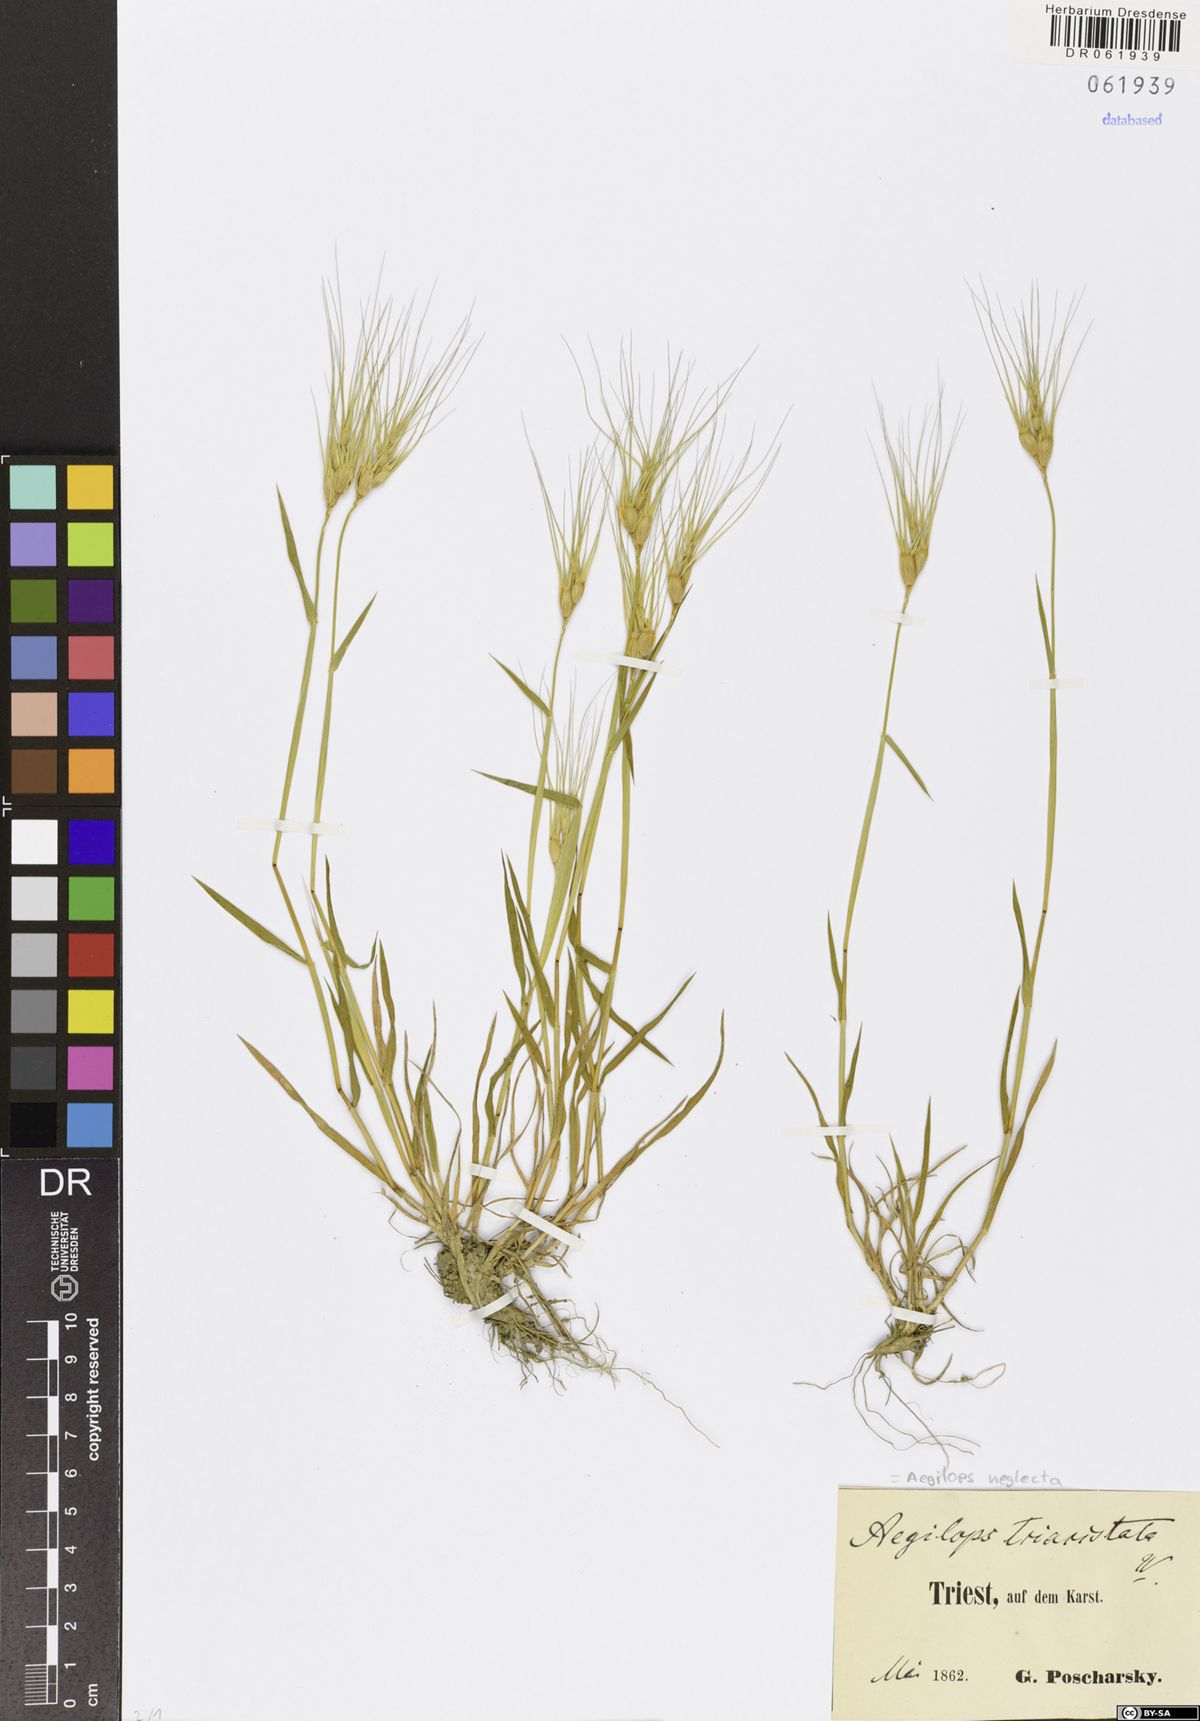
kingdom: Plantae
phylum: Tracheophyta
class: Liliopsida
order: Poales
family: Poaceae
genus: Aegilops
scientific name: Aegilops neglecta
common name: Three-awn goat grass
